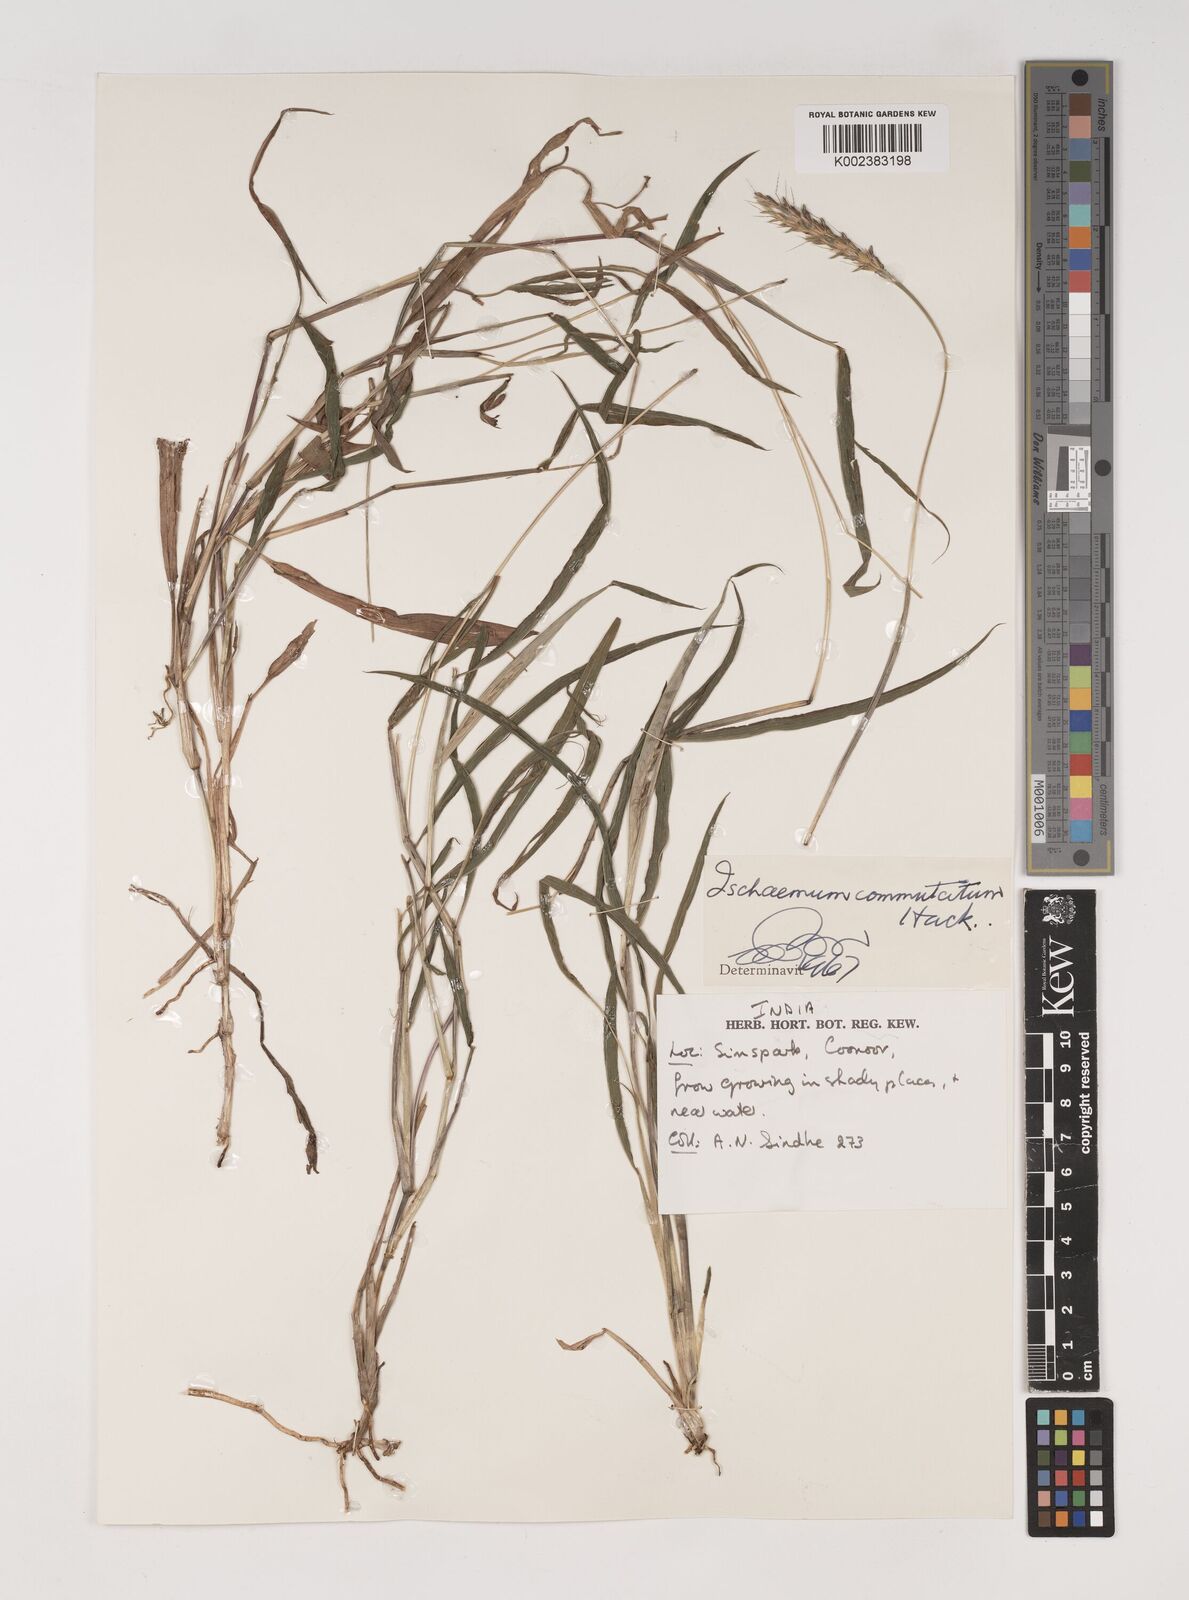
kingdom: Plantae
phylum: Tracheophyta
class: Liliopsida
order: Poales
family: Poaceae
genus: Ischaemum
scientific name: Ischaemum commutatum
